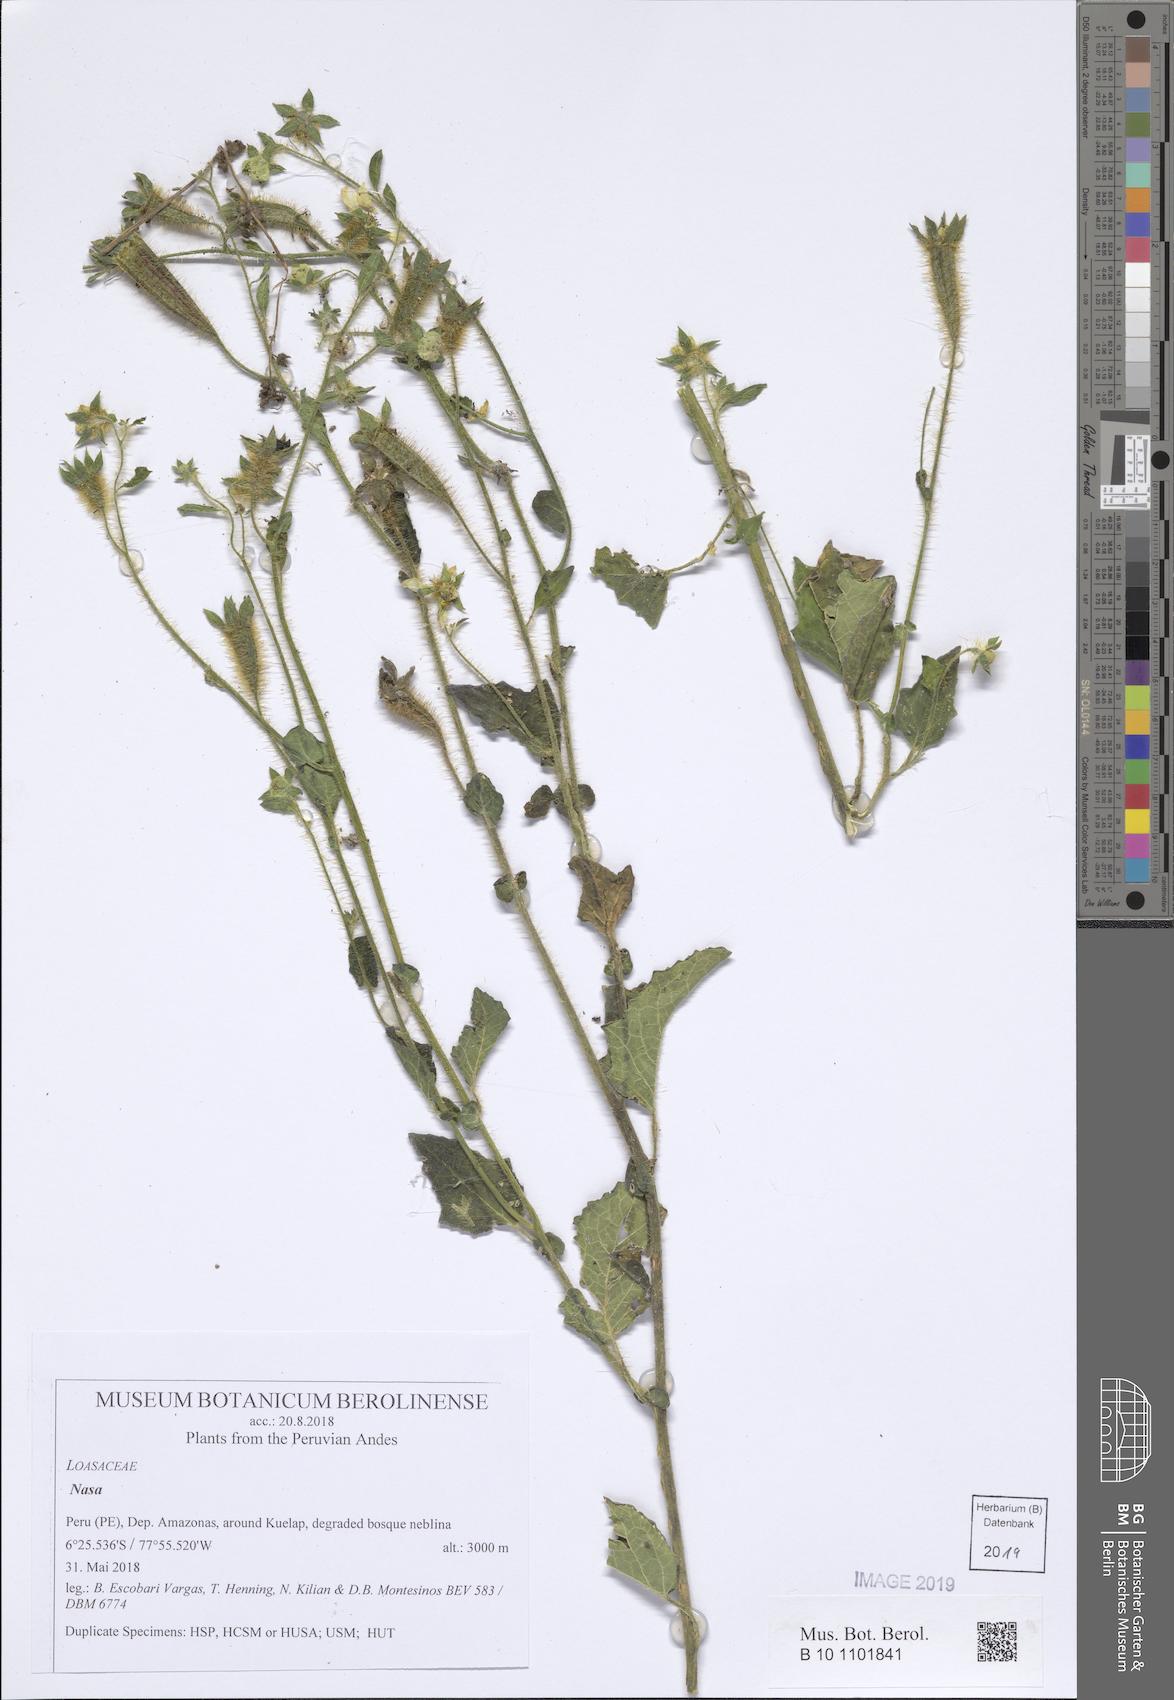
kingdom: Plantae
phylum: Tracheophyta
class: Magnoliopsida
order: Cornales
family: Loasaceae
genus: Nasa
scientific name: Nasa kuelapensis
